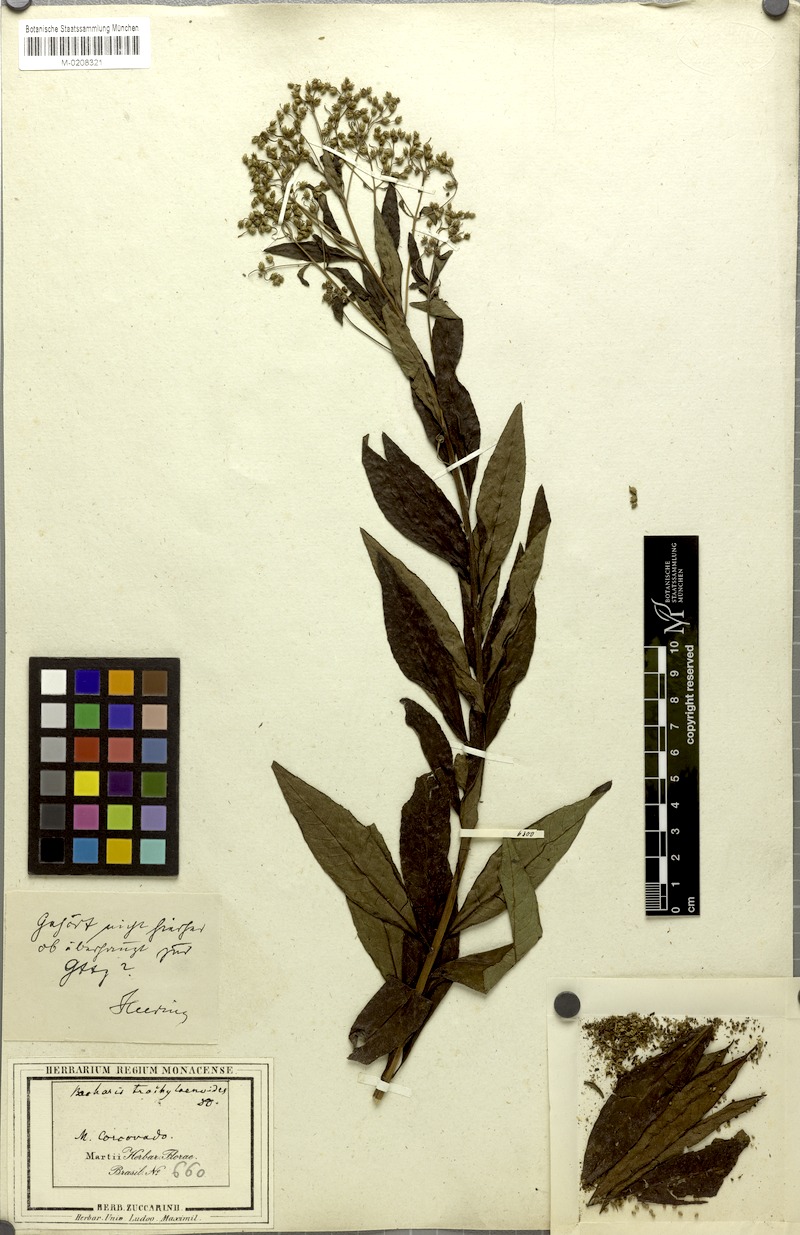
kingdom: Plantae
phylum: Tracheophyta
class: Magnoliopsida
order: Asterales
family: Asteraceae
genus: Baccharis
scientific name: Baccharis oblongifolia
